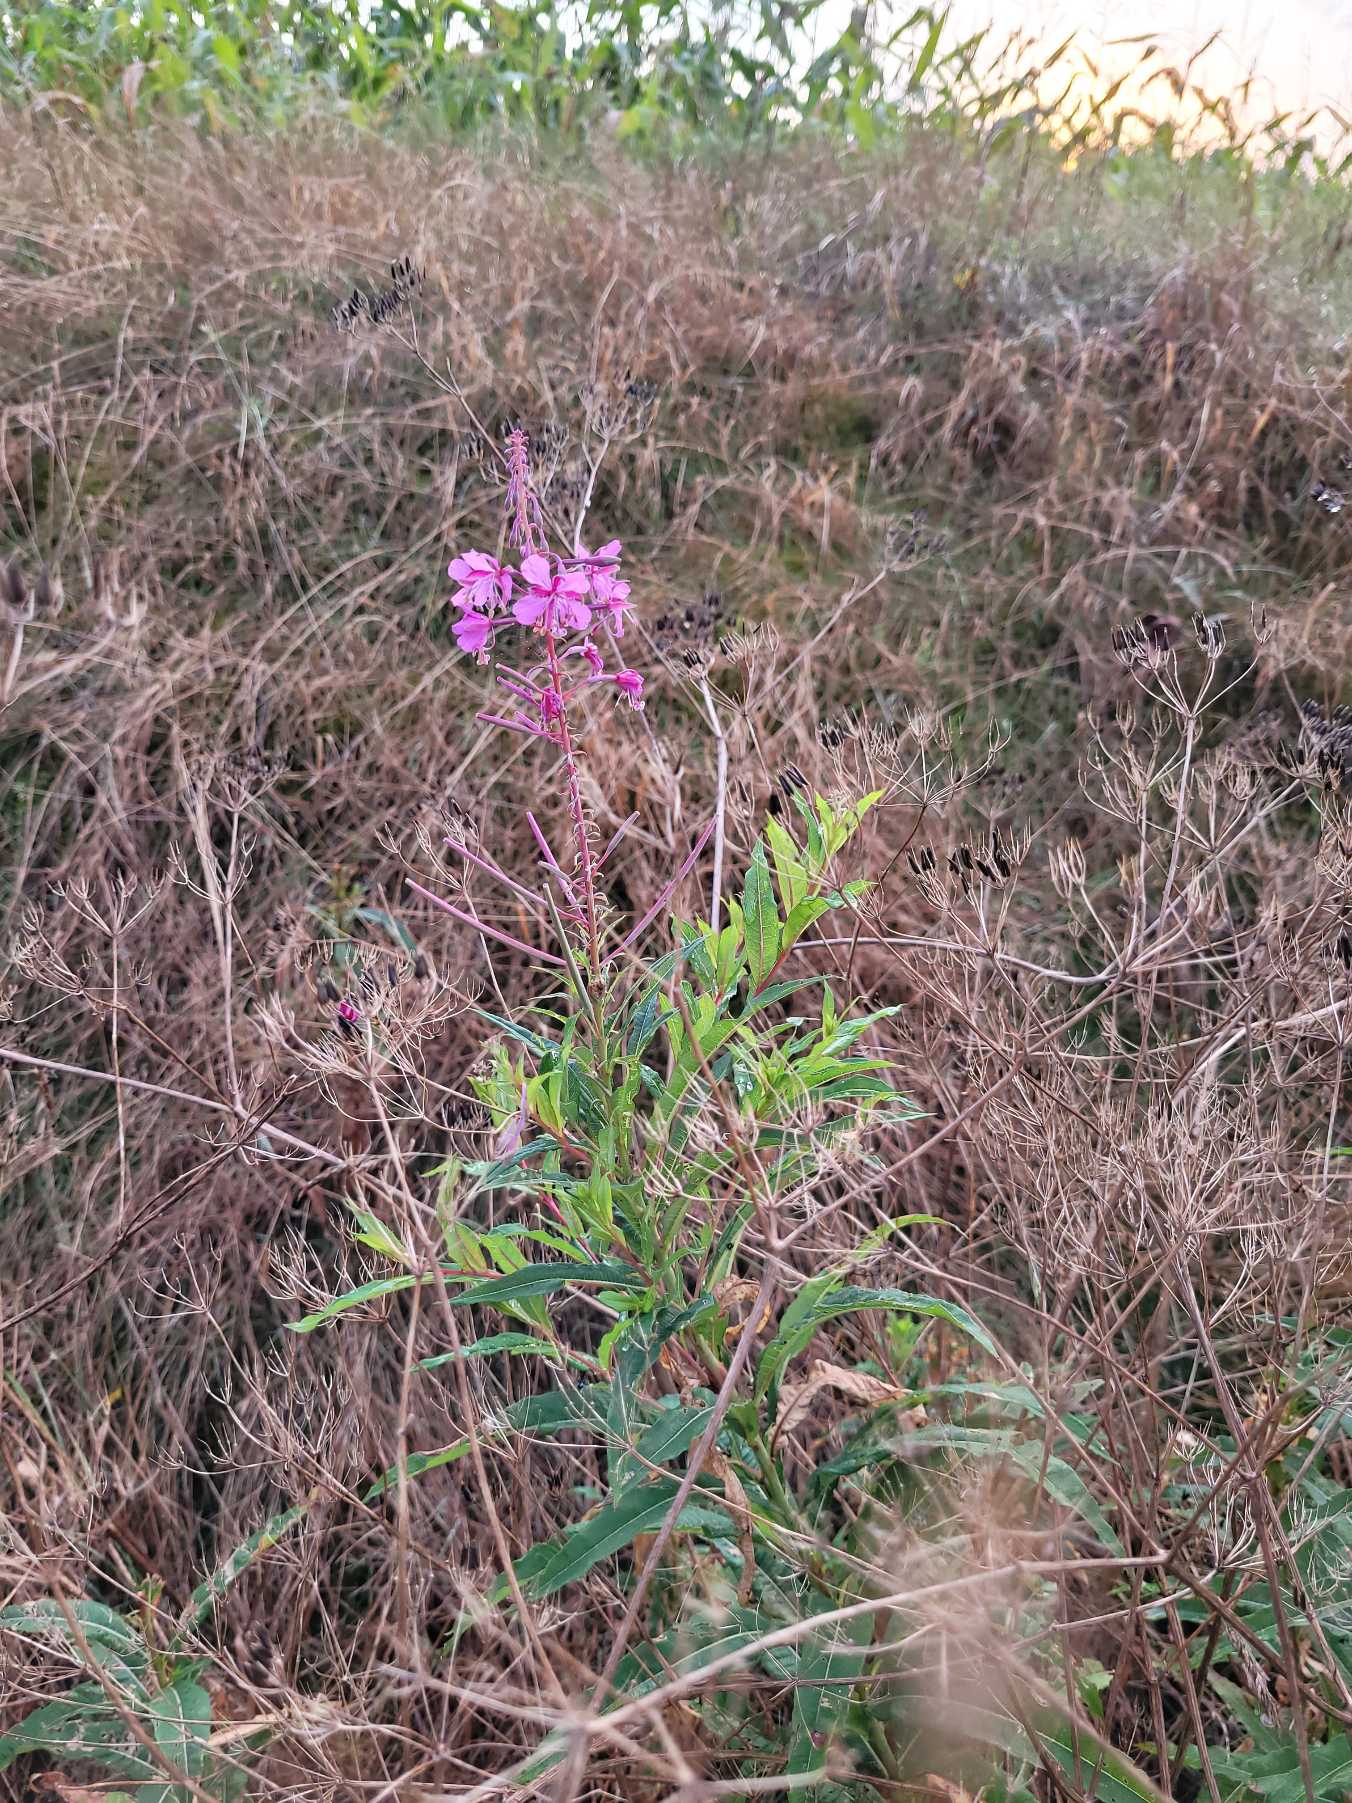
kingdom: Plantae
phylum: Tracheophyta
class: Magnoliopsida
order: Myrtales
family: Onagraceae
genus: Chamaenerion
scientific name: Chamaenerion angustifolium
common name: Gederams
